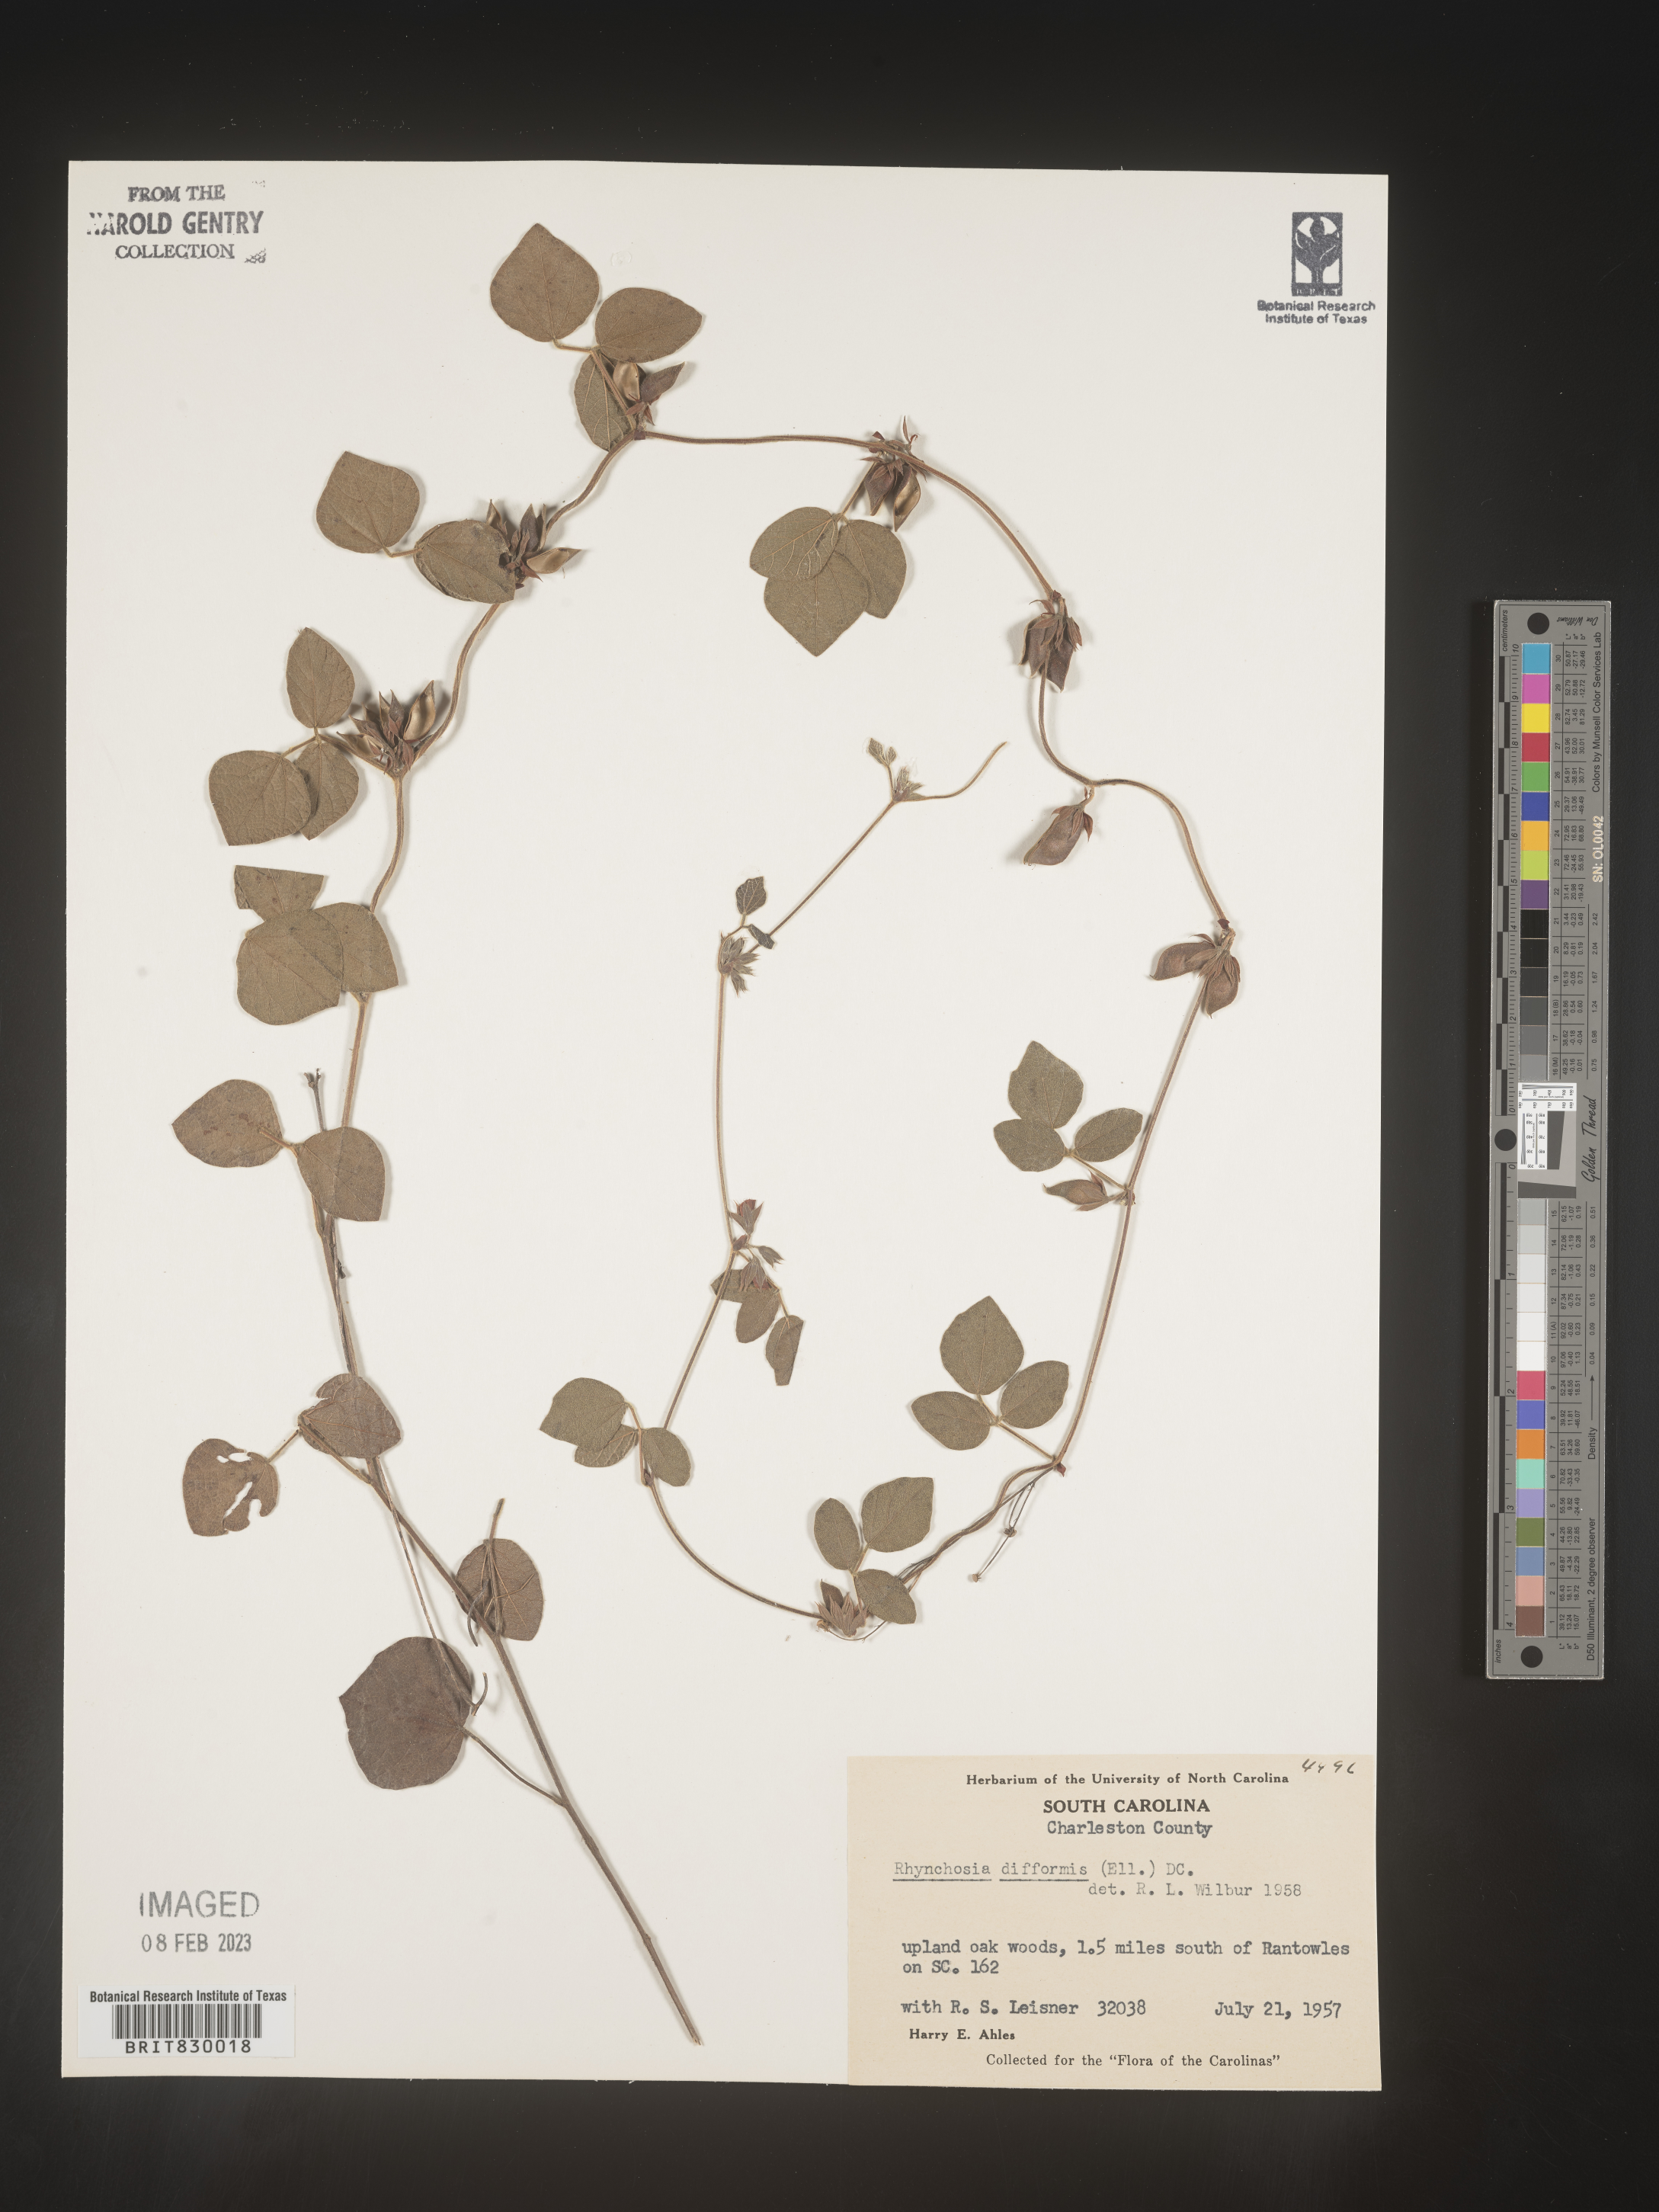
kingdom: Plantae
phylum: Tracheophyta
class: Magnoliopsida
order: Fabales
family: Fabaceae
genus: Rhynchosia
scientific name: Rhynchosia difformis
